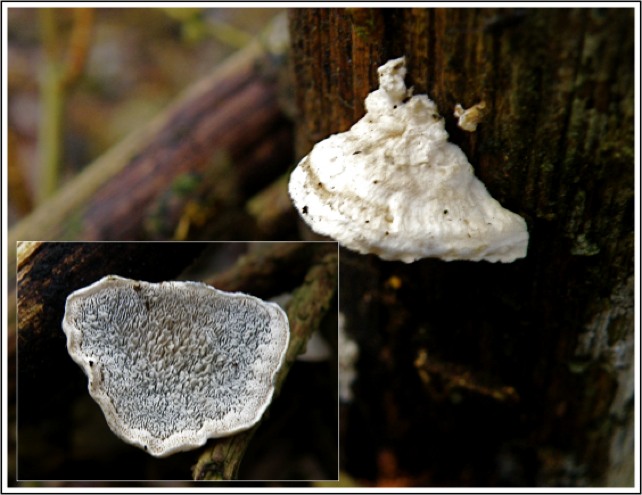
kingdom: Fungi
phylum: Basidiomycota
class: Agaricomycetes
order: Polyporales
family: Polyporaceae
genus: Cyanosporus
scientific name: Cyanosporus alni
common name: blegblå kødporesvamp
